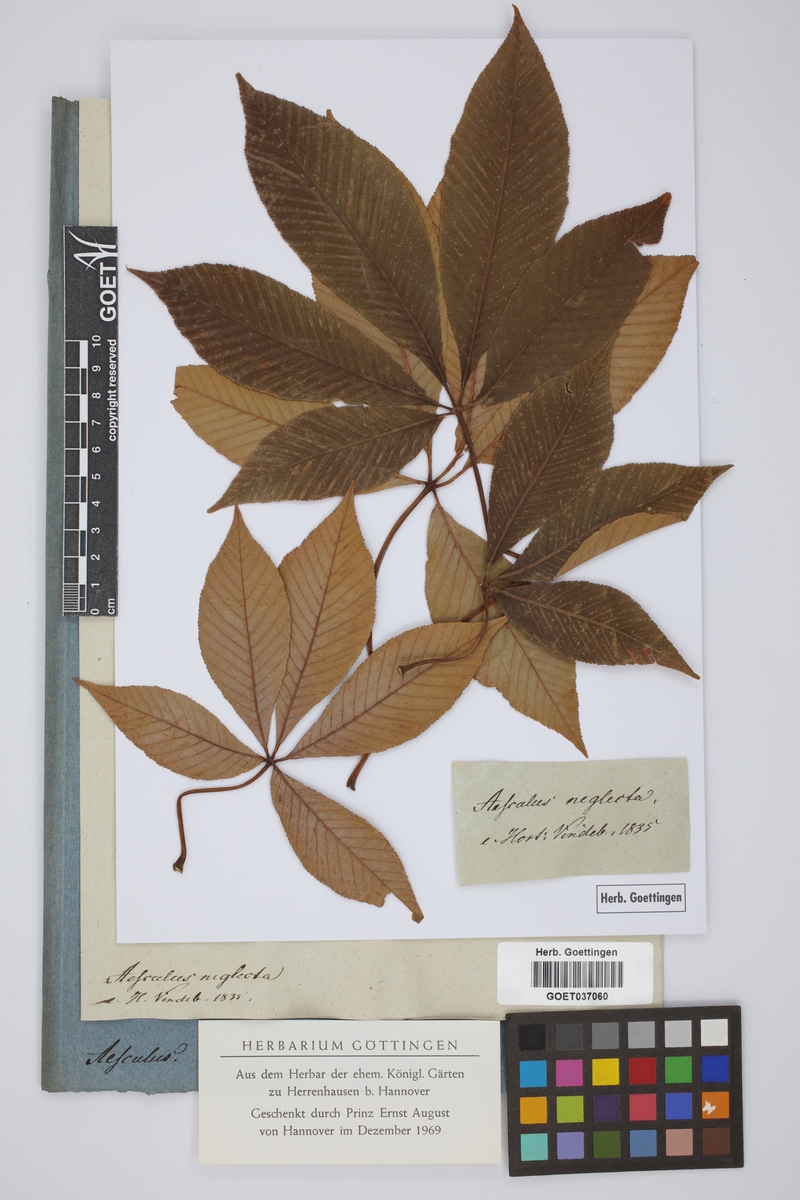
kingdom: Plantae
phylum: Tracheophyta
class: Magnoliopsida
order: Sapindales
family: Sapindaceae
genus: Aesculus
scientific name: Aesculus neglecta
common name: Sunrise horse-chestnut
